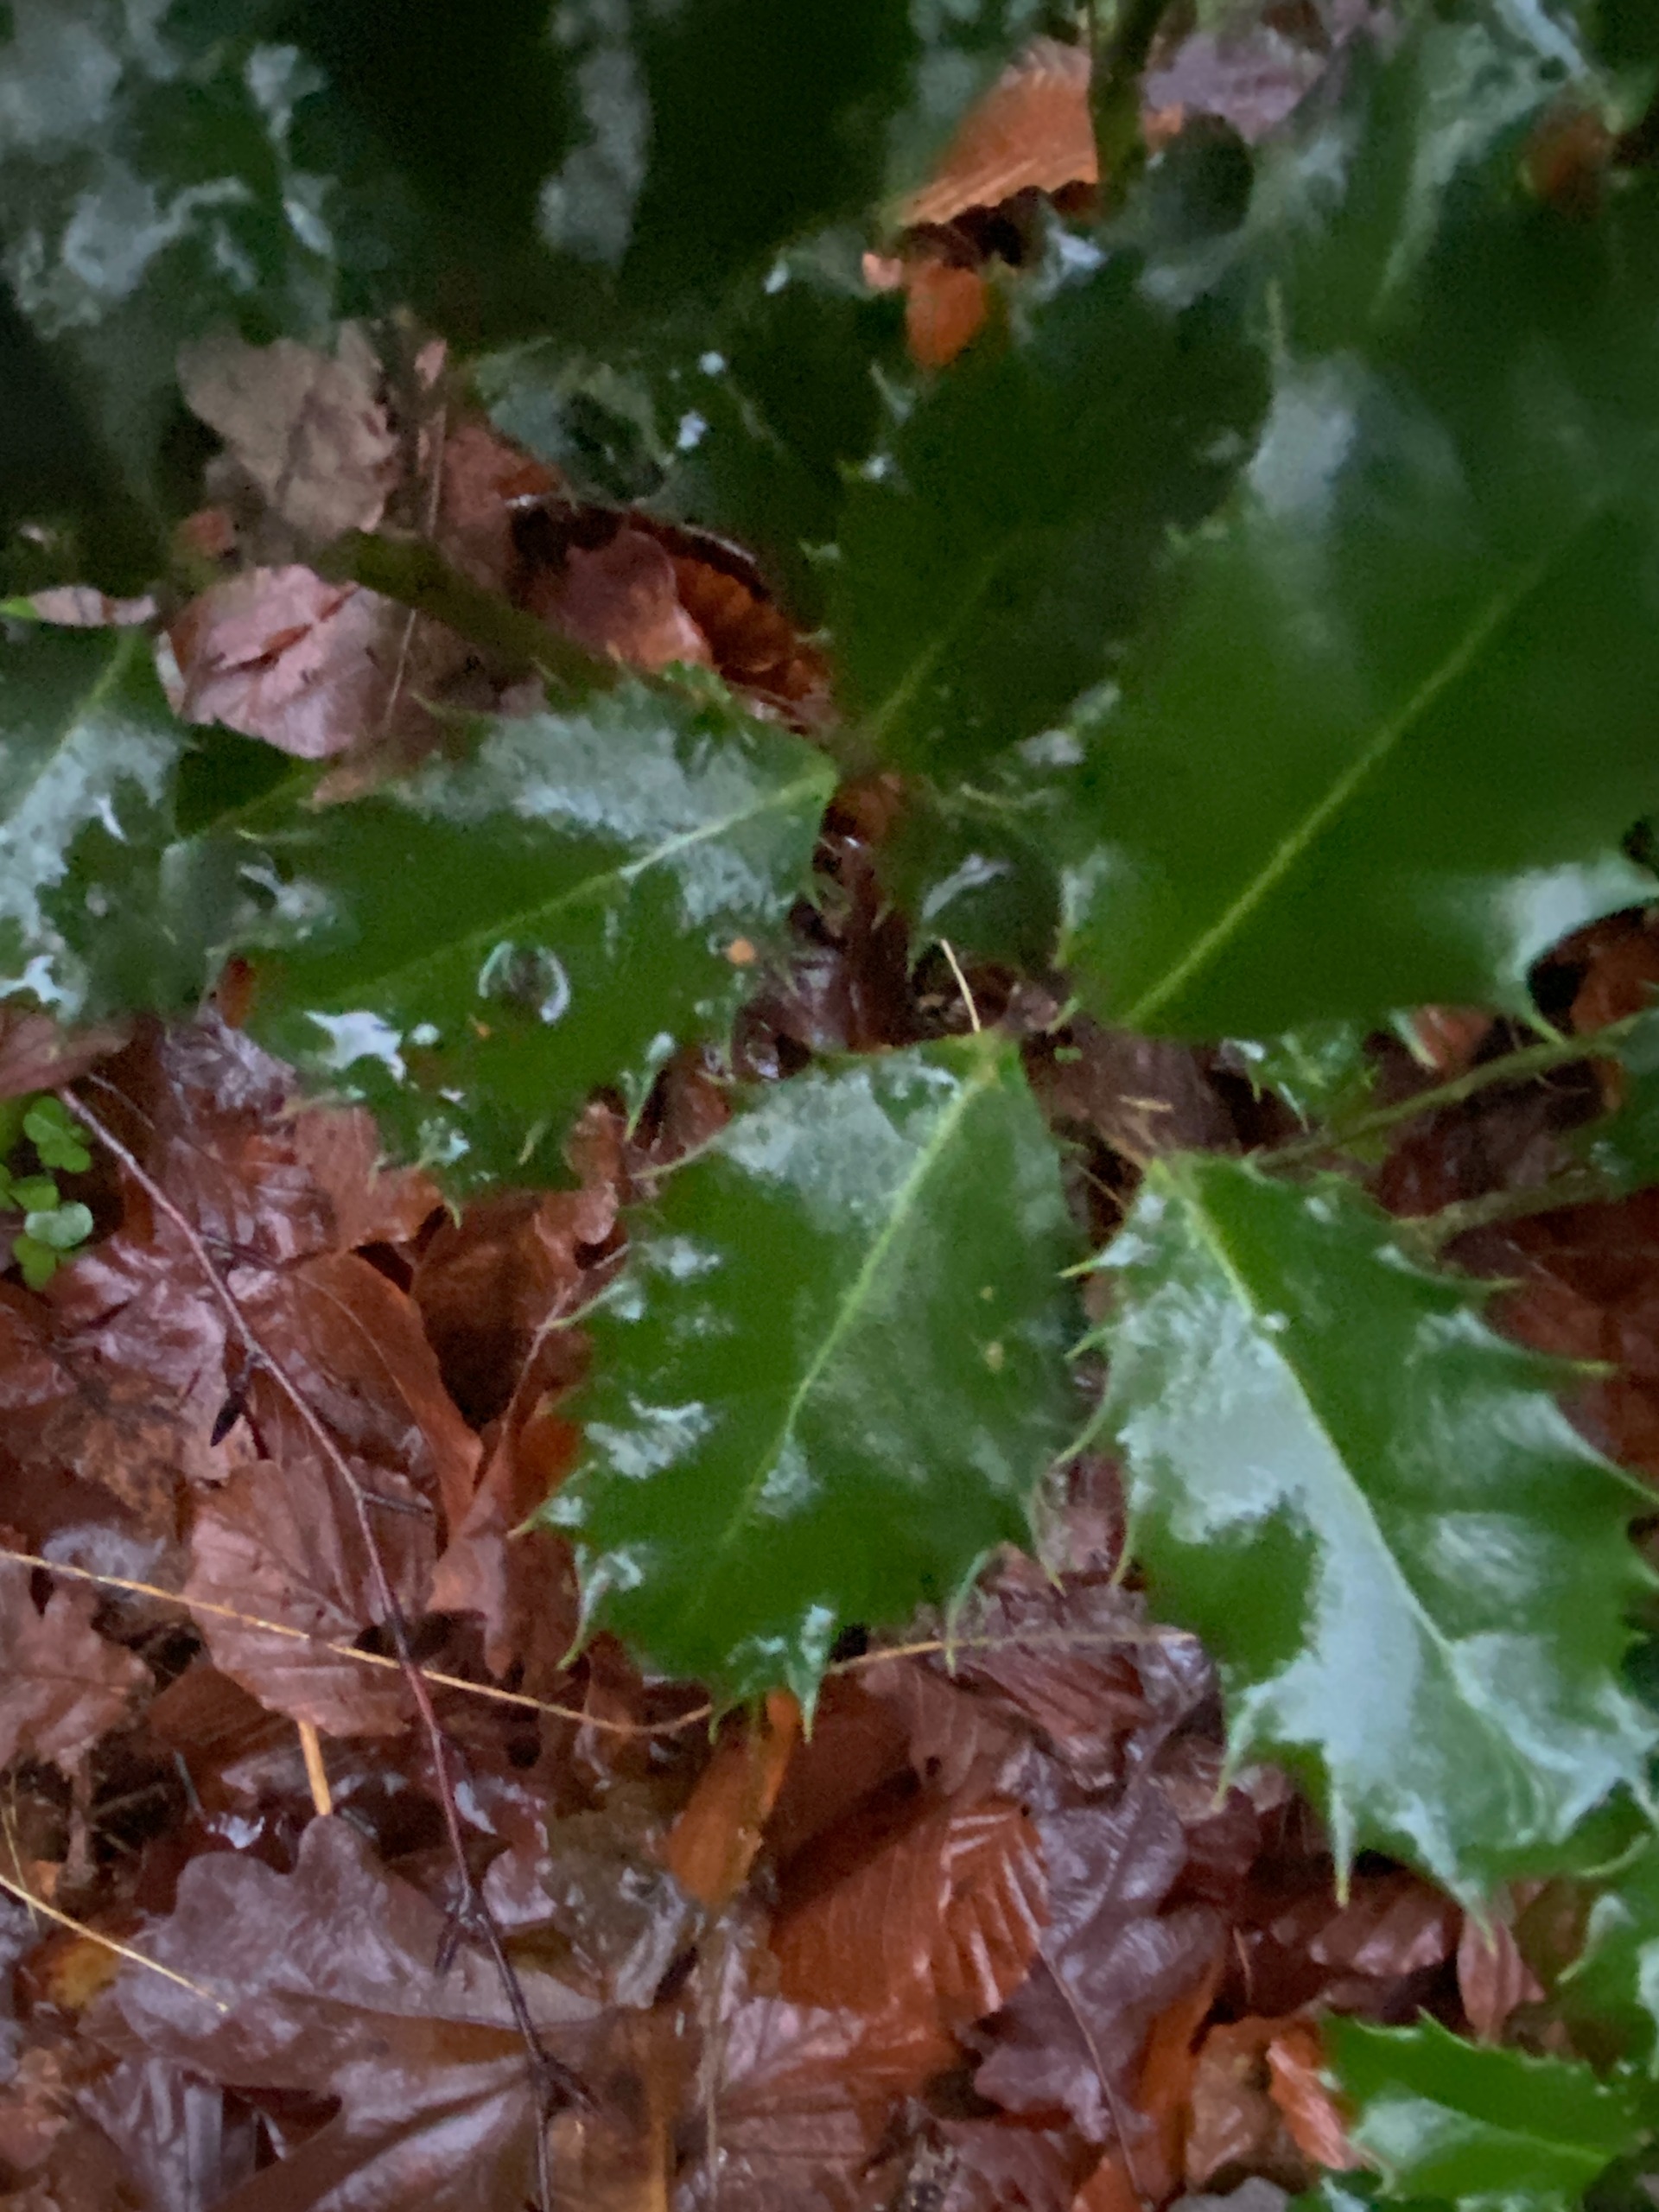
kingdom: Plantae
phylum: Tracheophyta
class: Magnoliopsida
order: Aquifoliales
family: Aquifoliaceae
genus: Ilex
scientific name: Ilex aquifolium
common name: Kristtorn
